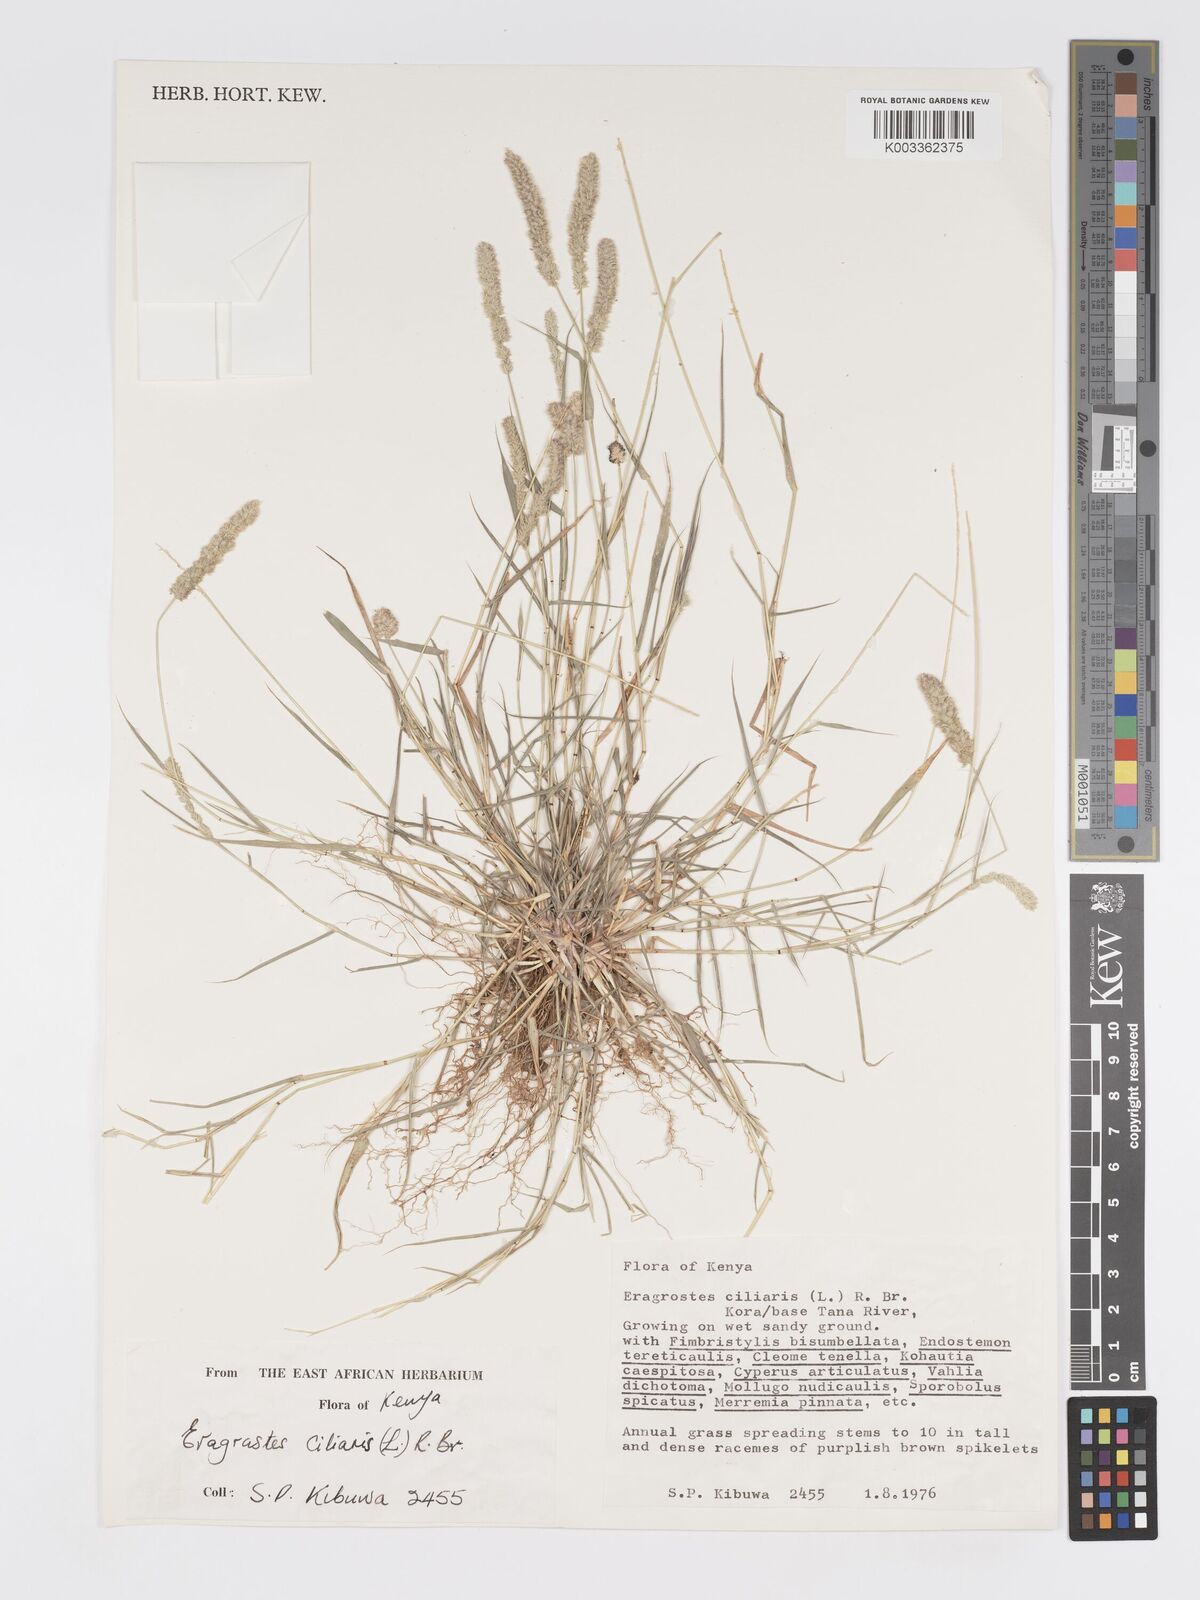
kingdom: Plantae
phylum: Tracheophyta
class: Liliopsida
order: Poales
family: Poaceae
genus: Eragrostis
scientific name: Eragrostis ciliaris
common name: Gophertail lovegrass
